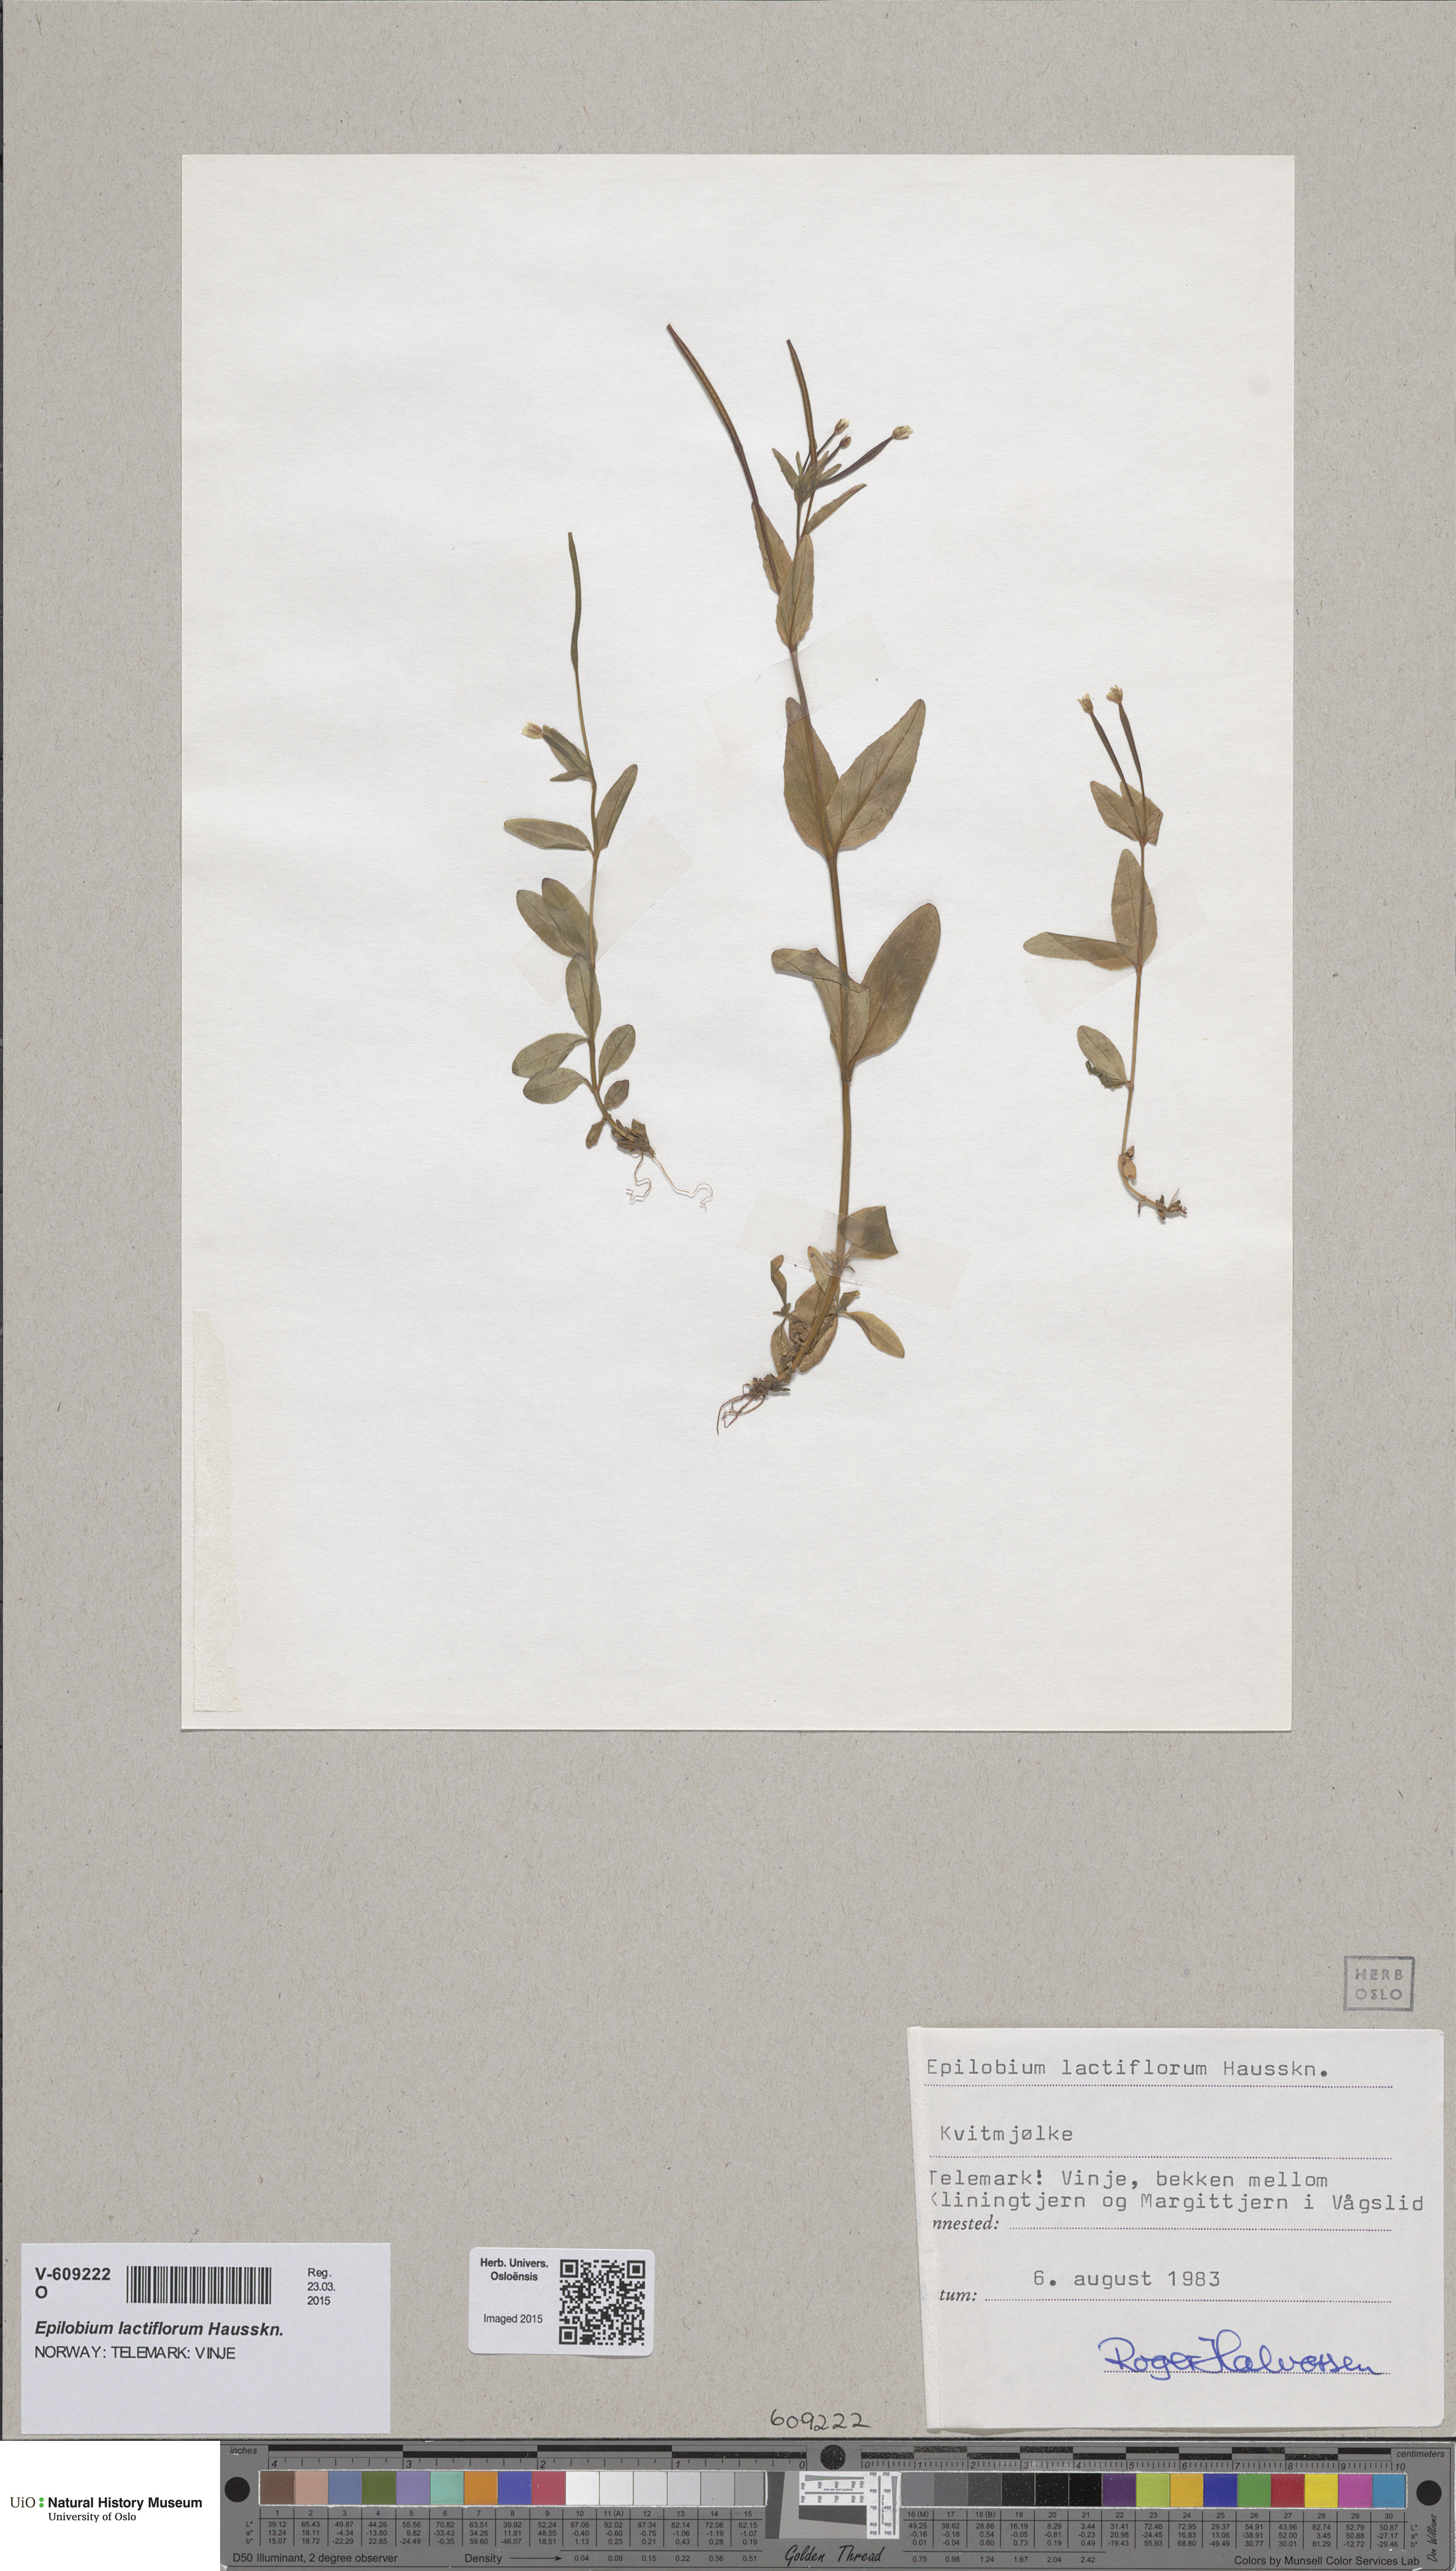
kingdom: Plantae
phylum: Tracheophyta
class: Magnoliopsida
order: Myrtales
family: Onagraceae
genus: Epilobium
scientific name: Epilobium lactiflorum
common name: Milkflower willowherb
